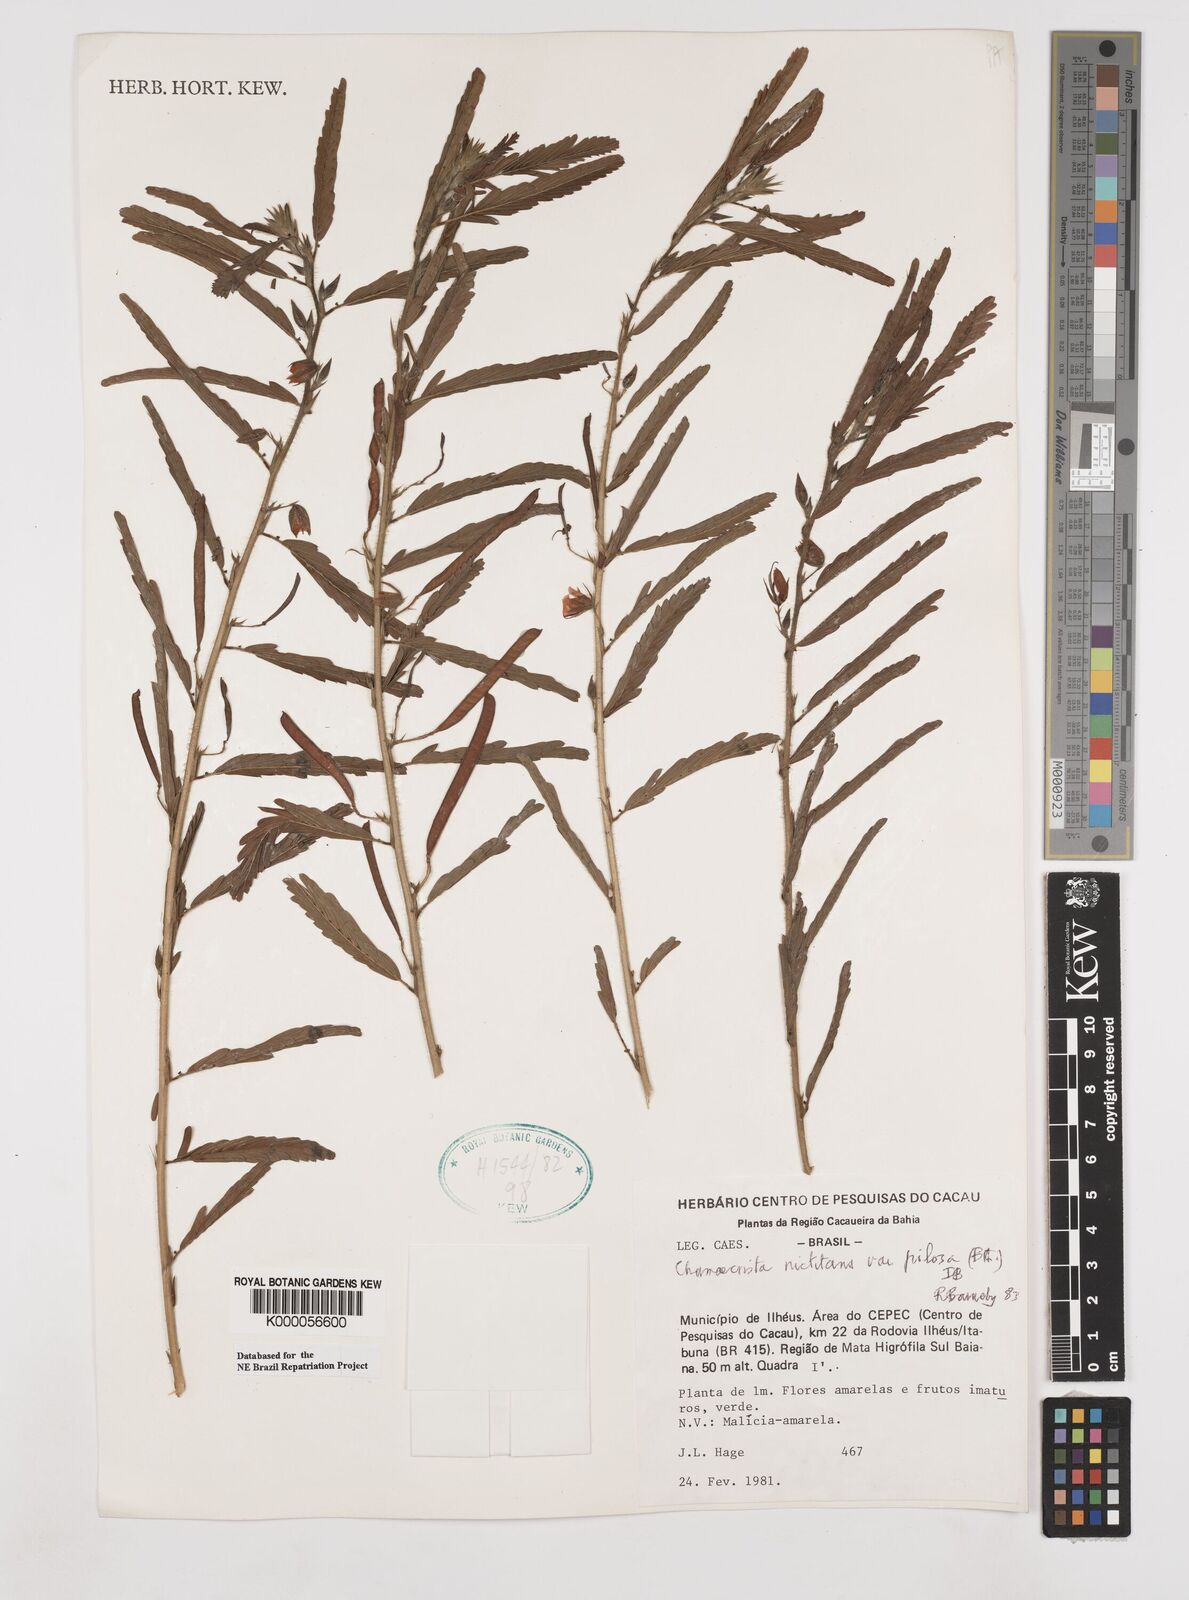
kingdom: Plantae
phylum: Tracheophyta
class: Magnoliopsida
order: Fabales
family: Fabaceae
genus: Chamaecrista
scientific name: Chamaecrista nictitans
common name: Sensitive cassia
